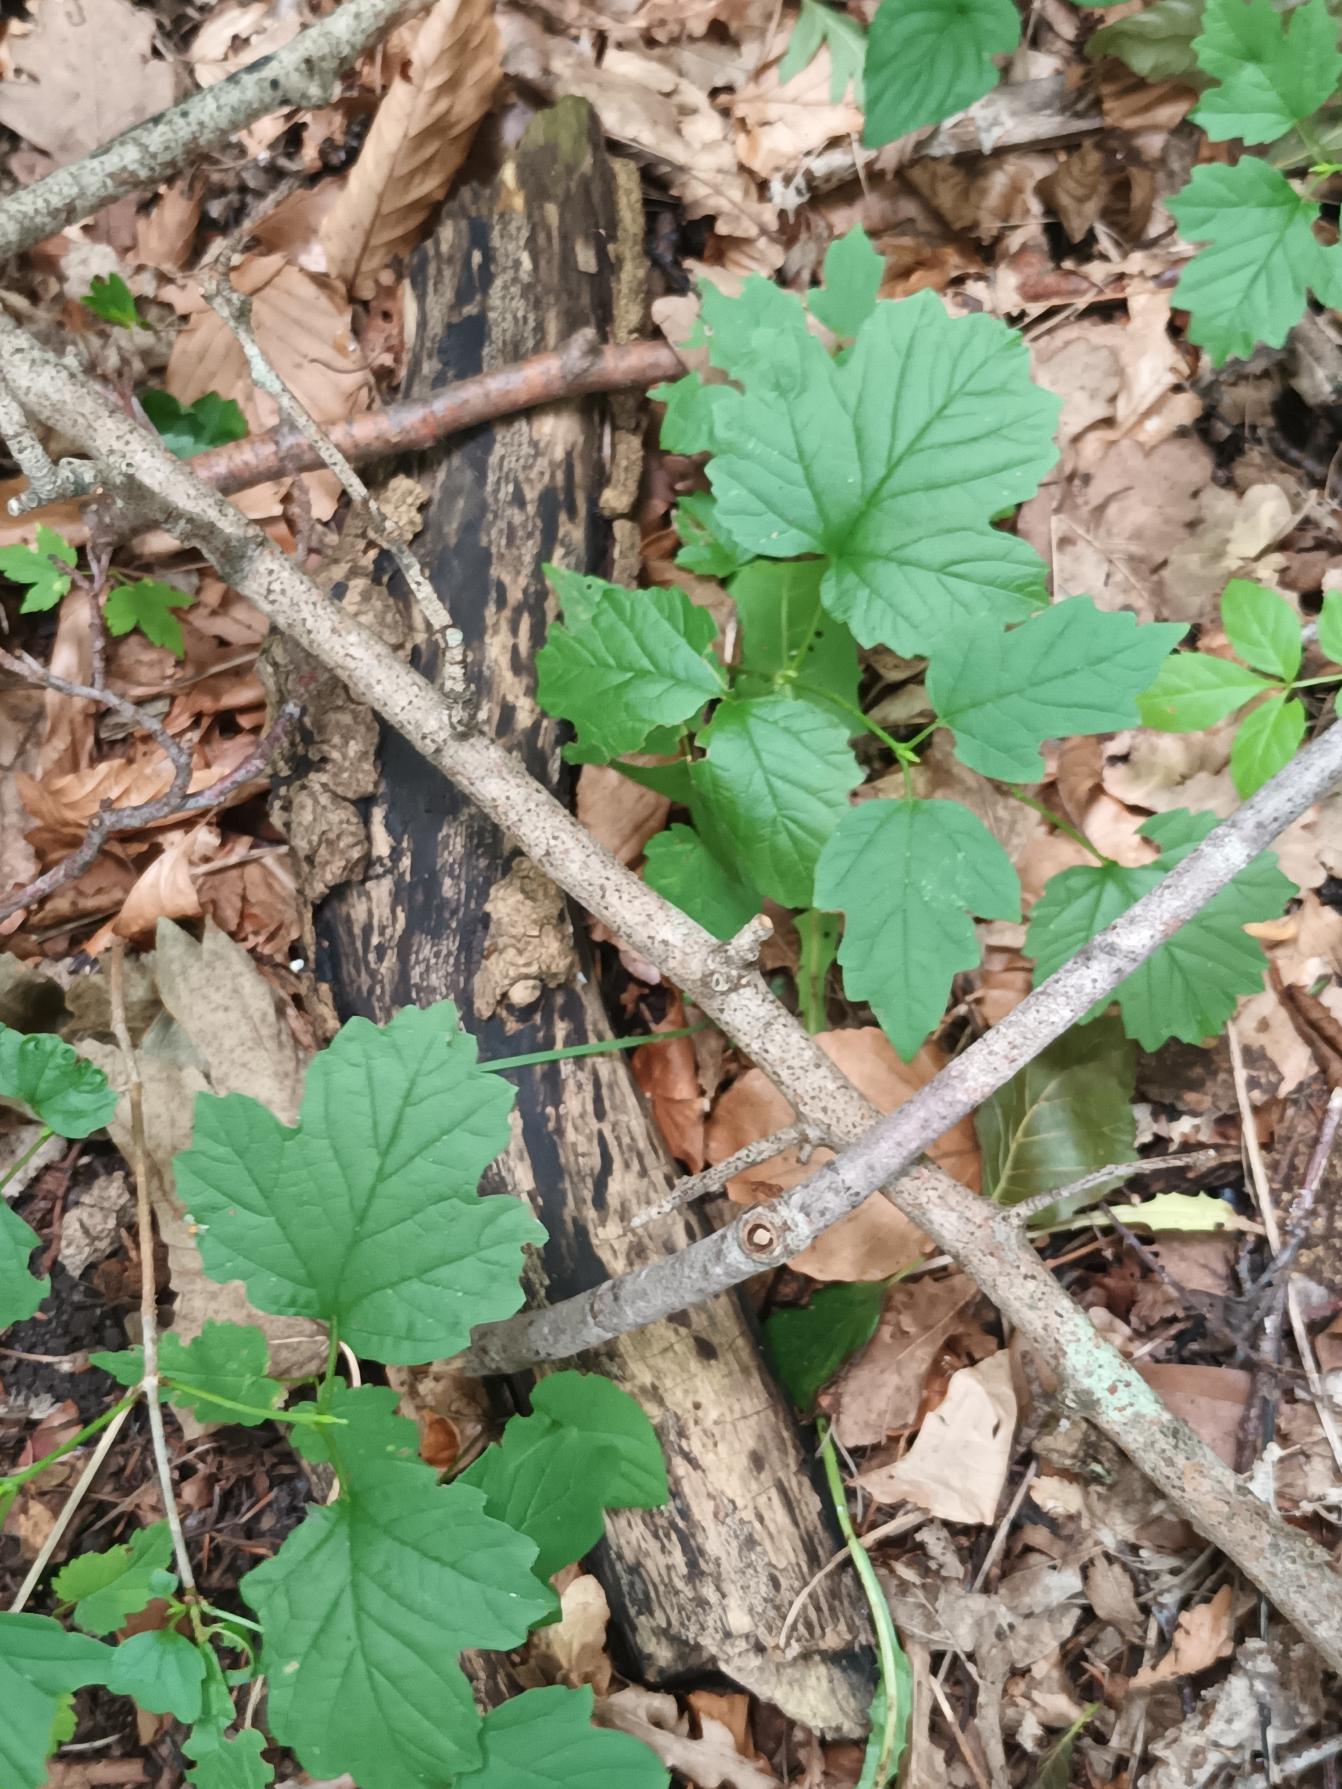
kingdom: Plantae
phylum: Tracheophyta
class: Magnoliopsida
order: Dipsacales
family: Viburnaceae
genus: Viburnum
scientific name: Viburnum opulus
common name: Kvalkved
